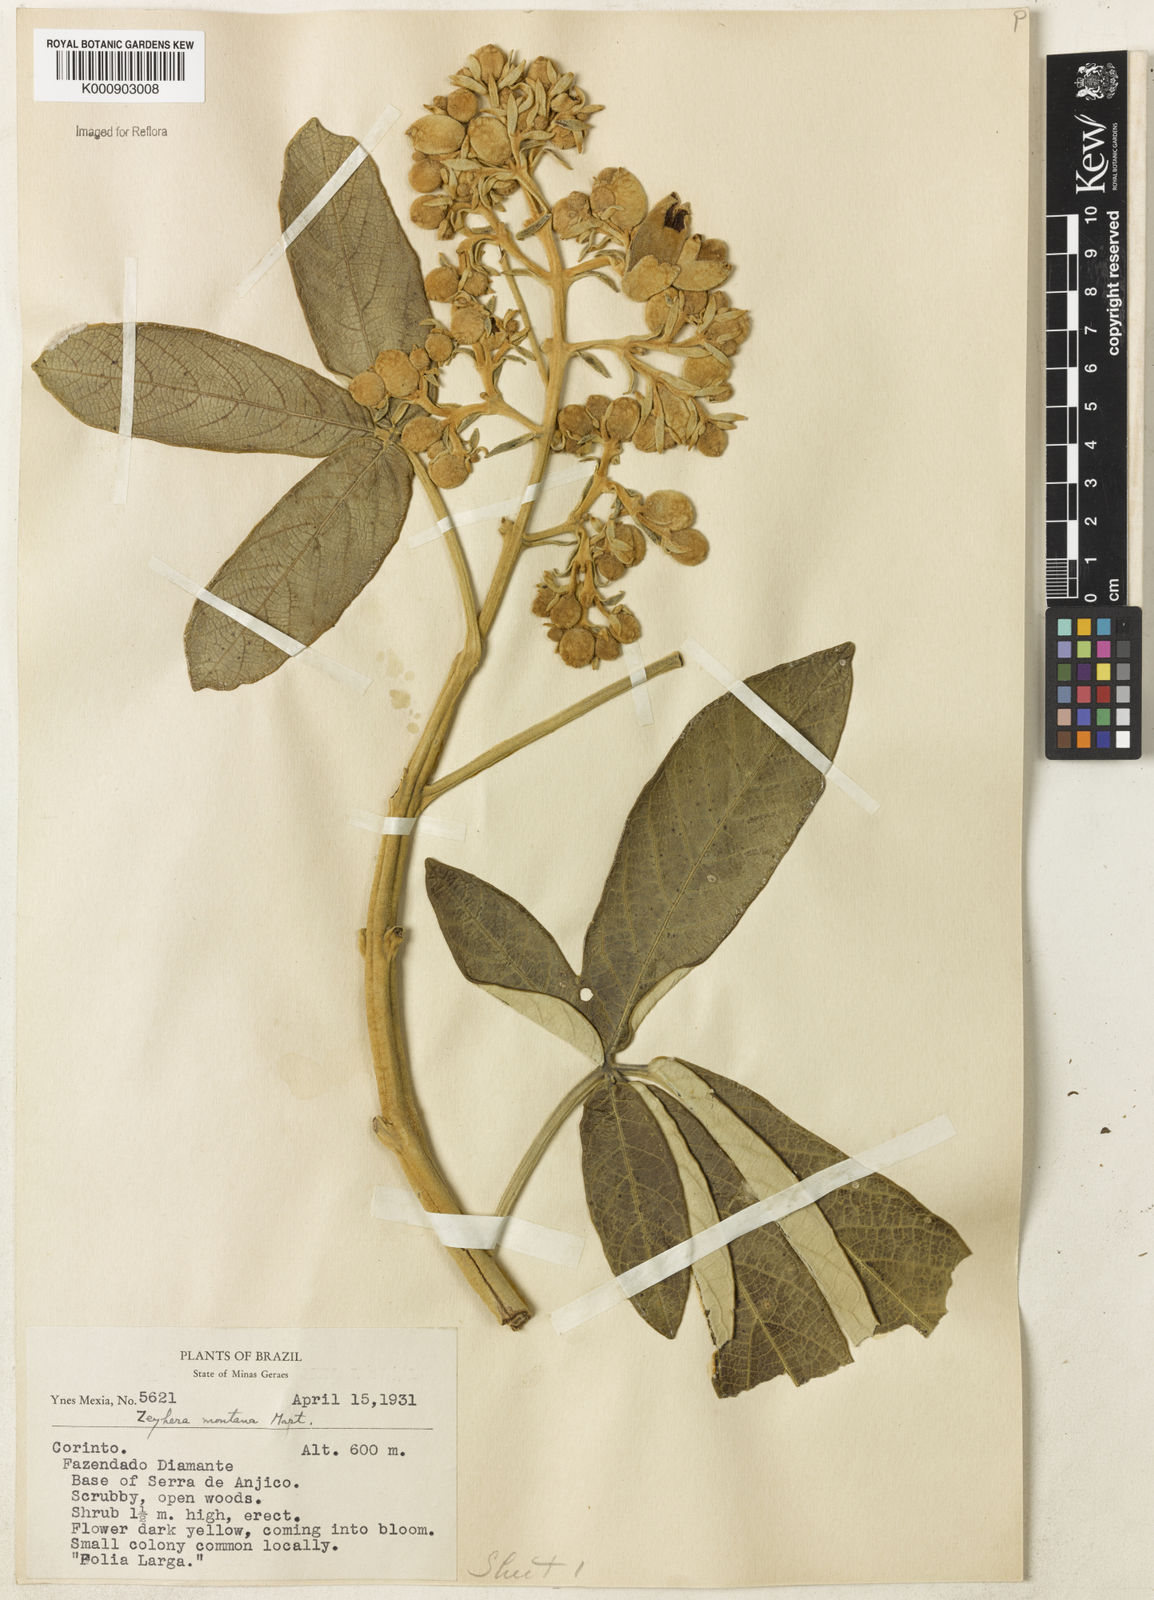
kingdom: Plantae
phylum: Tracheophyta
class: Magnoliopsida
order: Lamiales
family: Bignoniaceae
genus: Zeyheria
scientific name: Zeyheria montana
